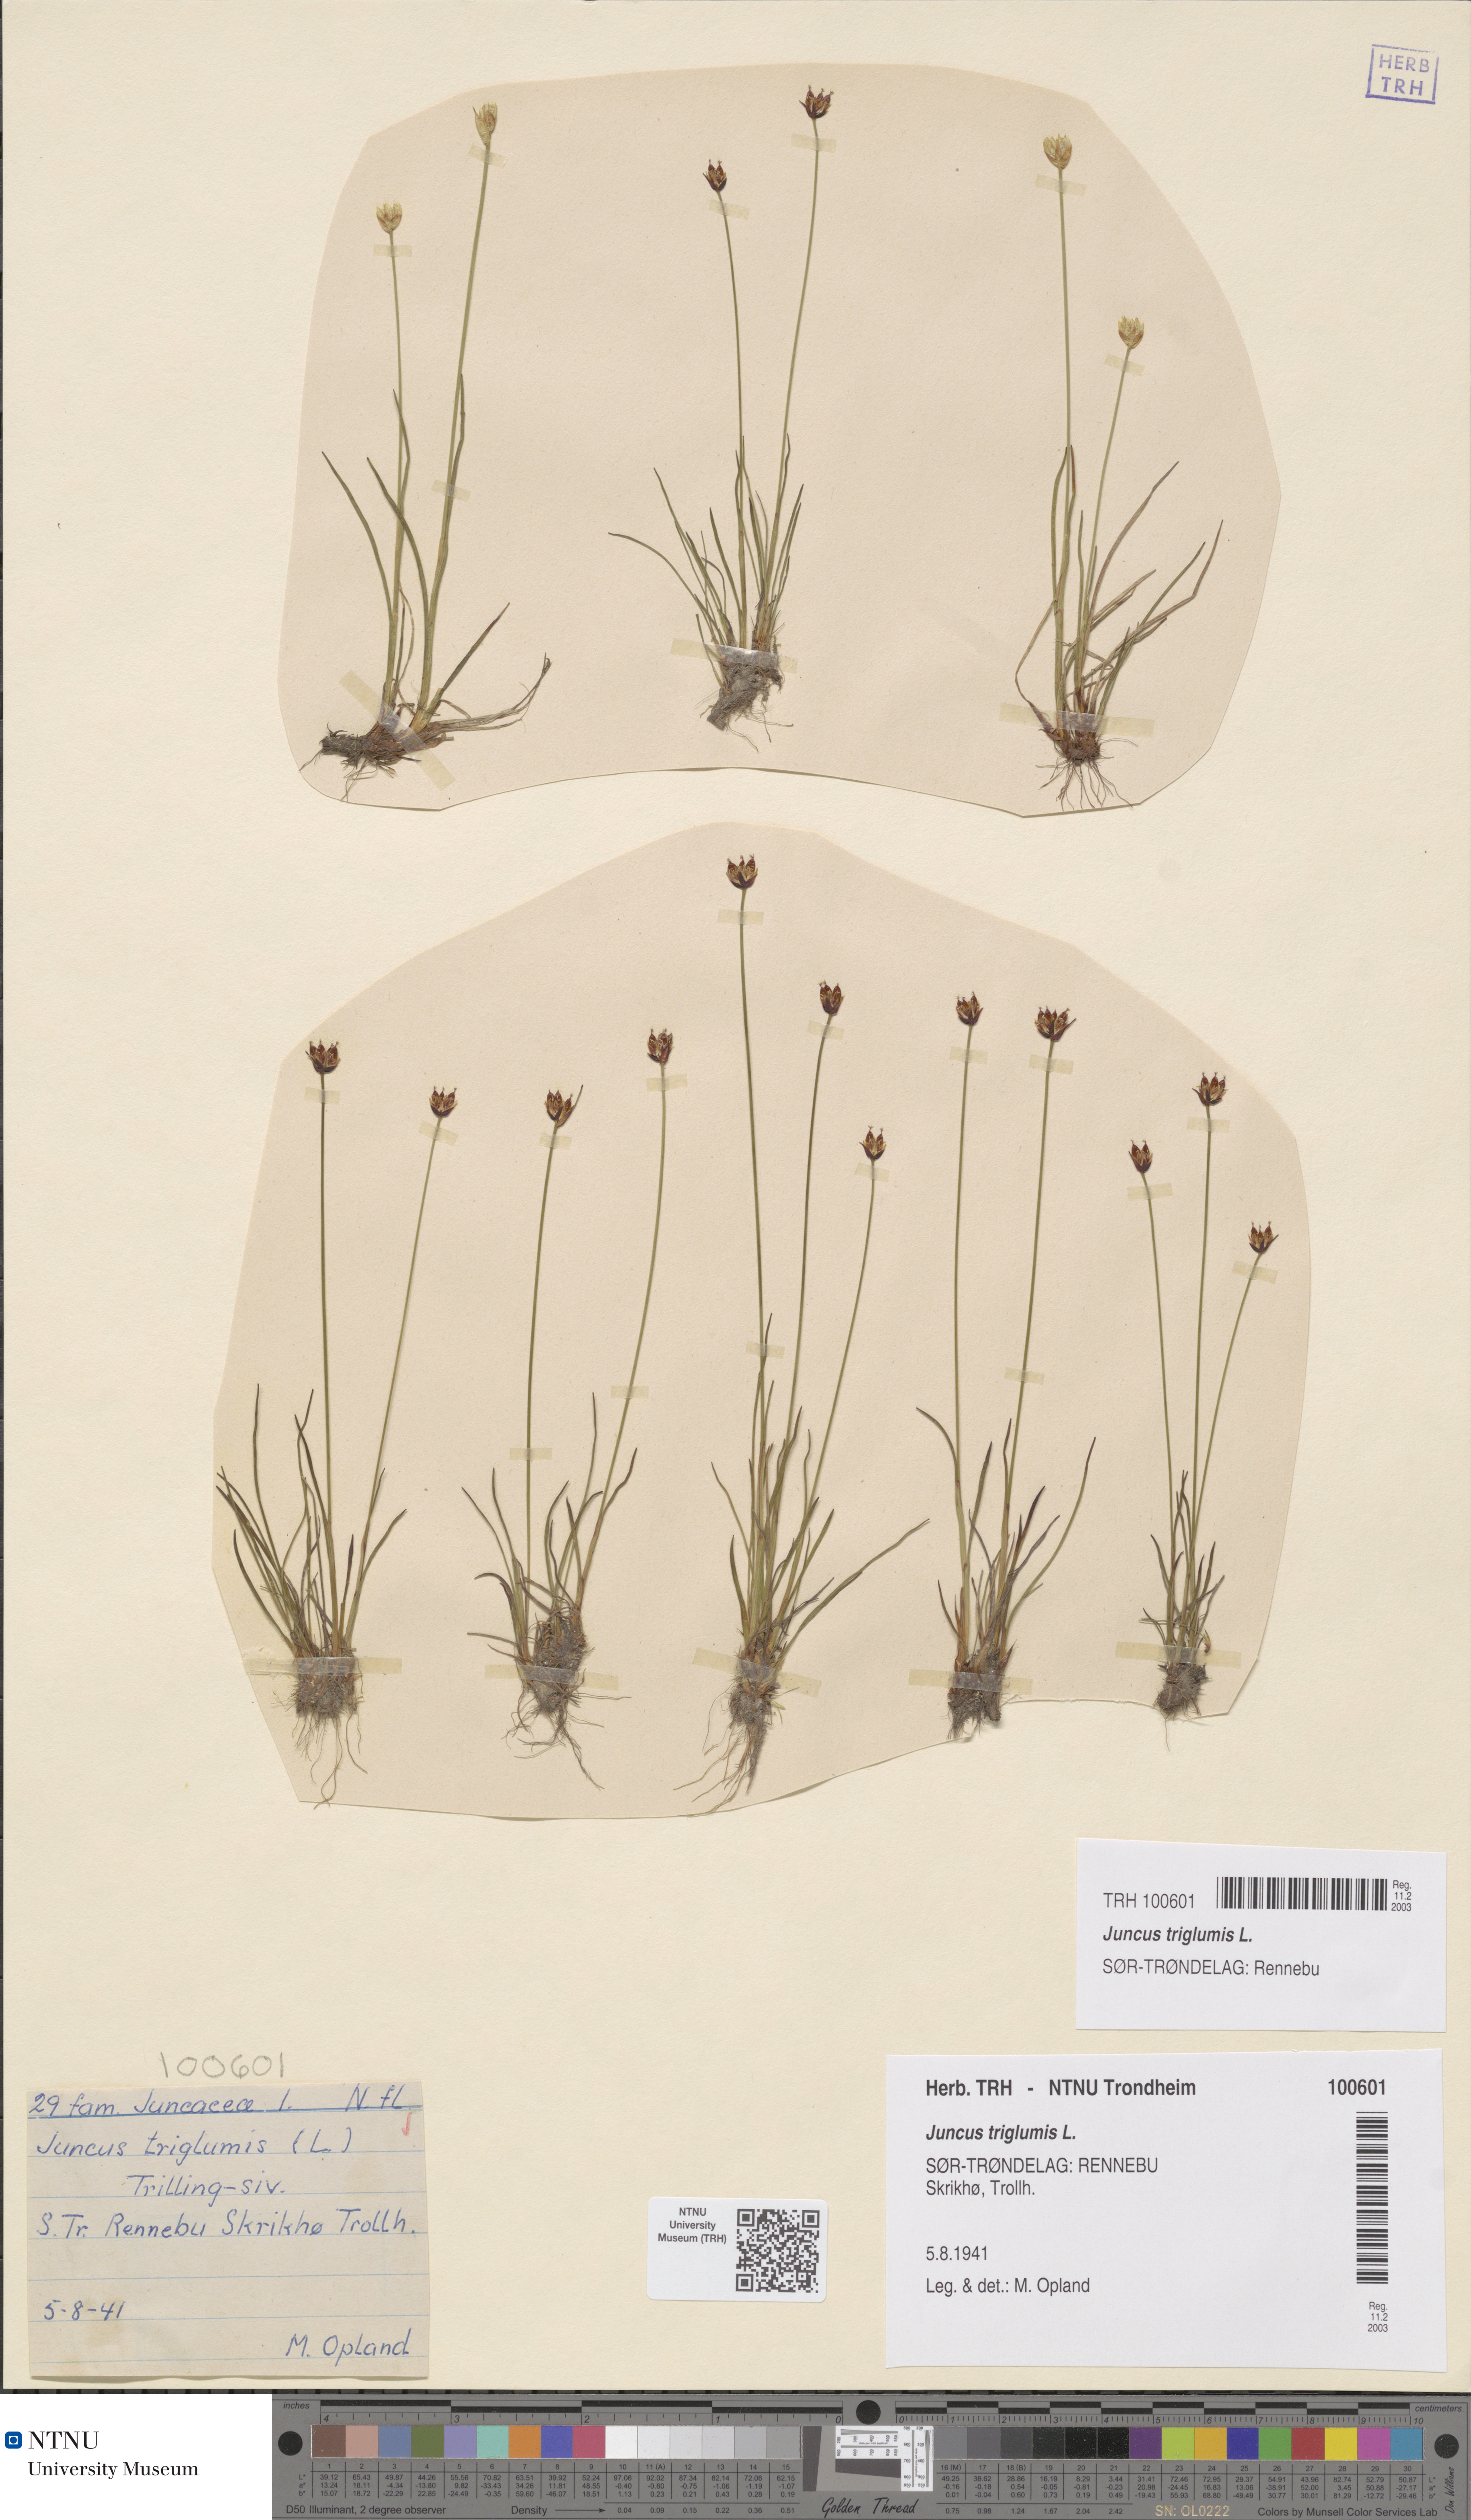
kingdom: Plantae
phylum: Tracheophyta
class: Liliopsida
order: Poales
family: Juncaceae
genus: Juncus
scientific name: Juncus triglumis
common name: Three-flowered rush
